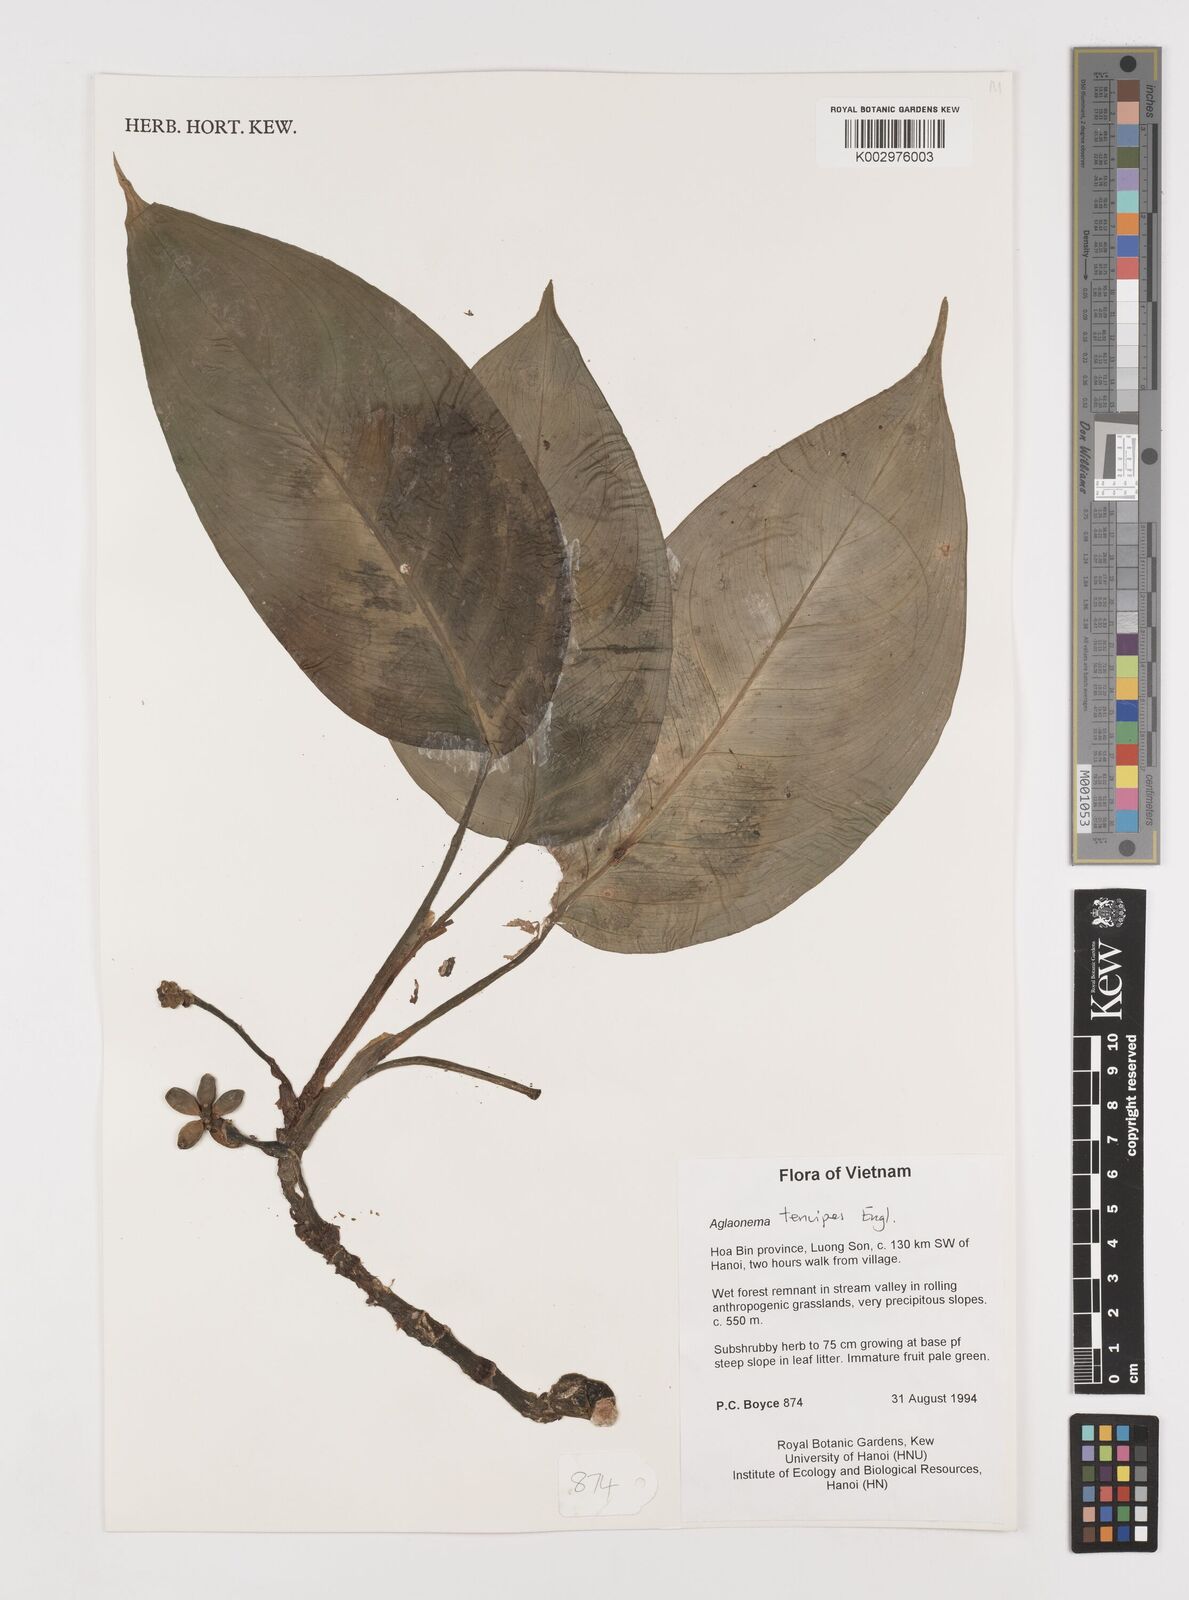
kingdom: Plantae
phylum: Tracheophyta
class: Liliopsida
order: Alismatales
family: Araceae
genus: Aglaonema
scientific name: Aglaonema simplex
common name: Malayan-sword
